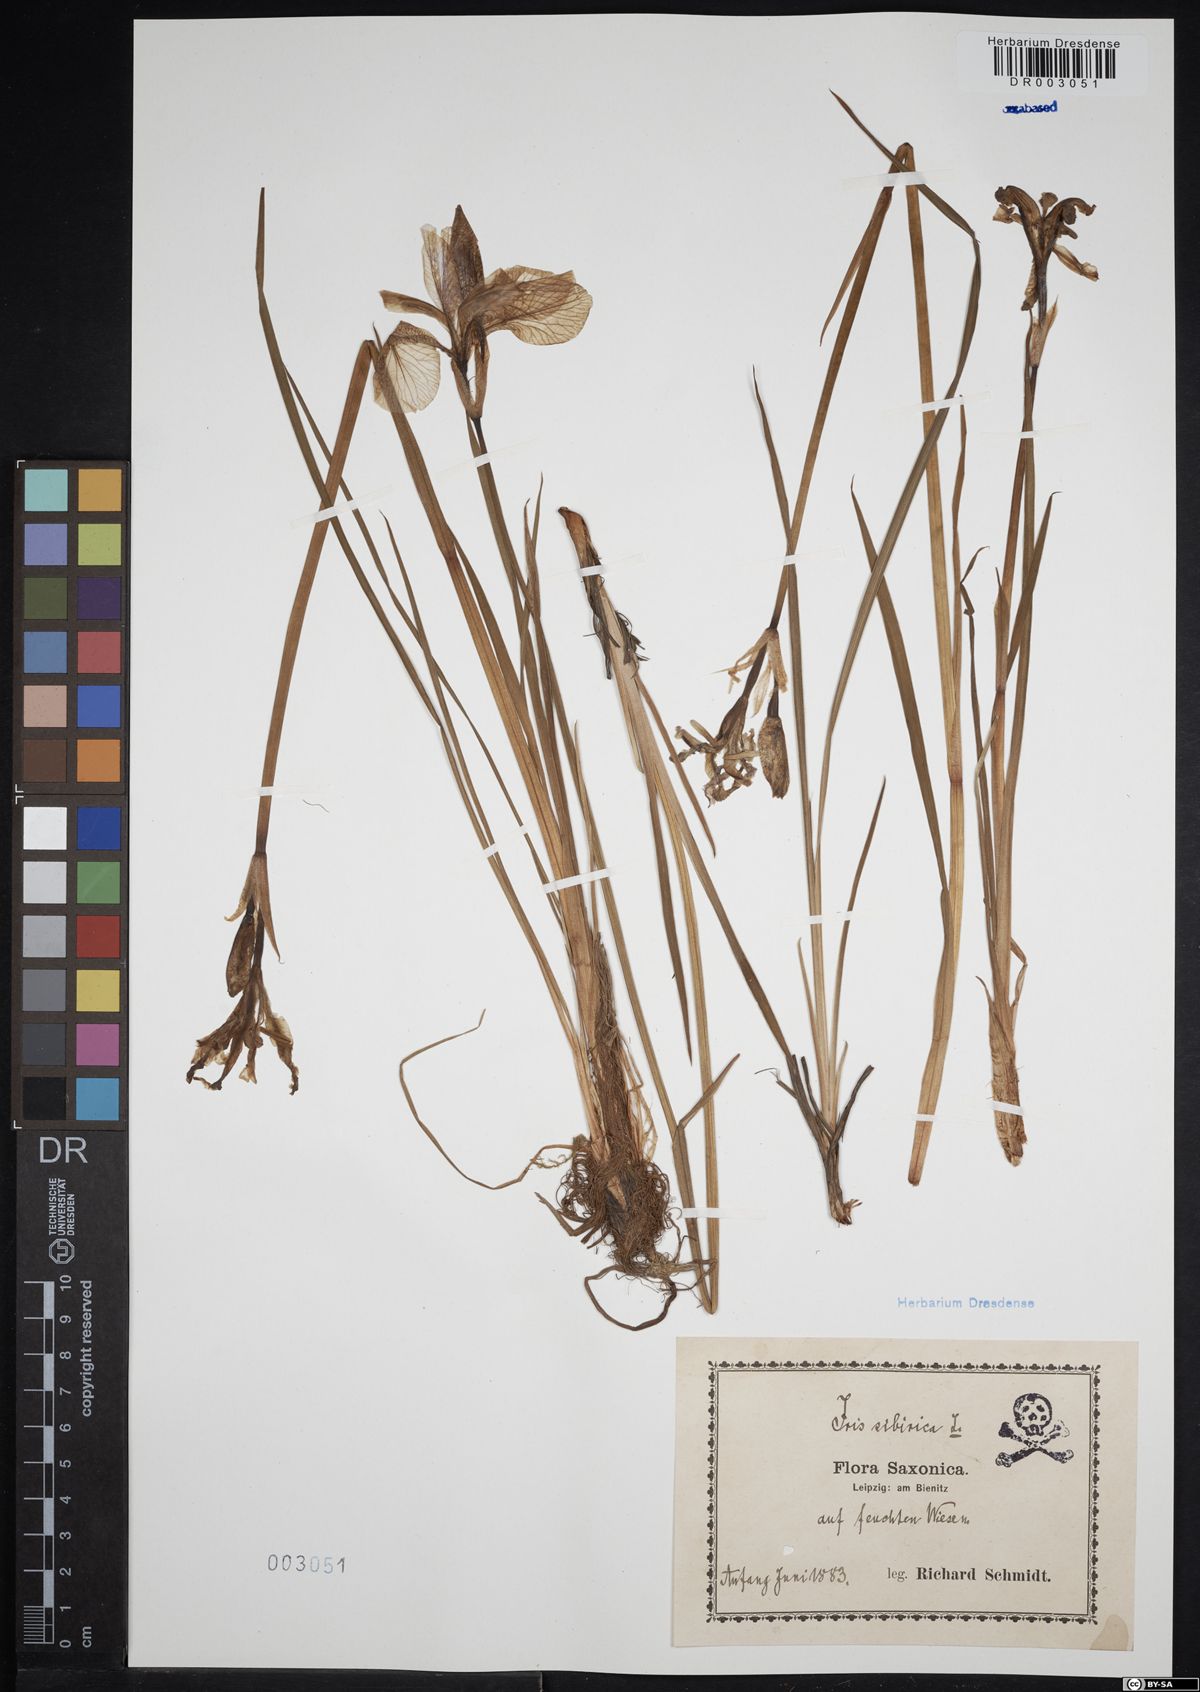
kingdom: Plantae
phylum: Tracheophyta
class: Liliopsida
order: Asparagales
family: Iridaceae
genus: Iris
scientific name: Iris sibirica
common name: Siberian iris
